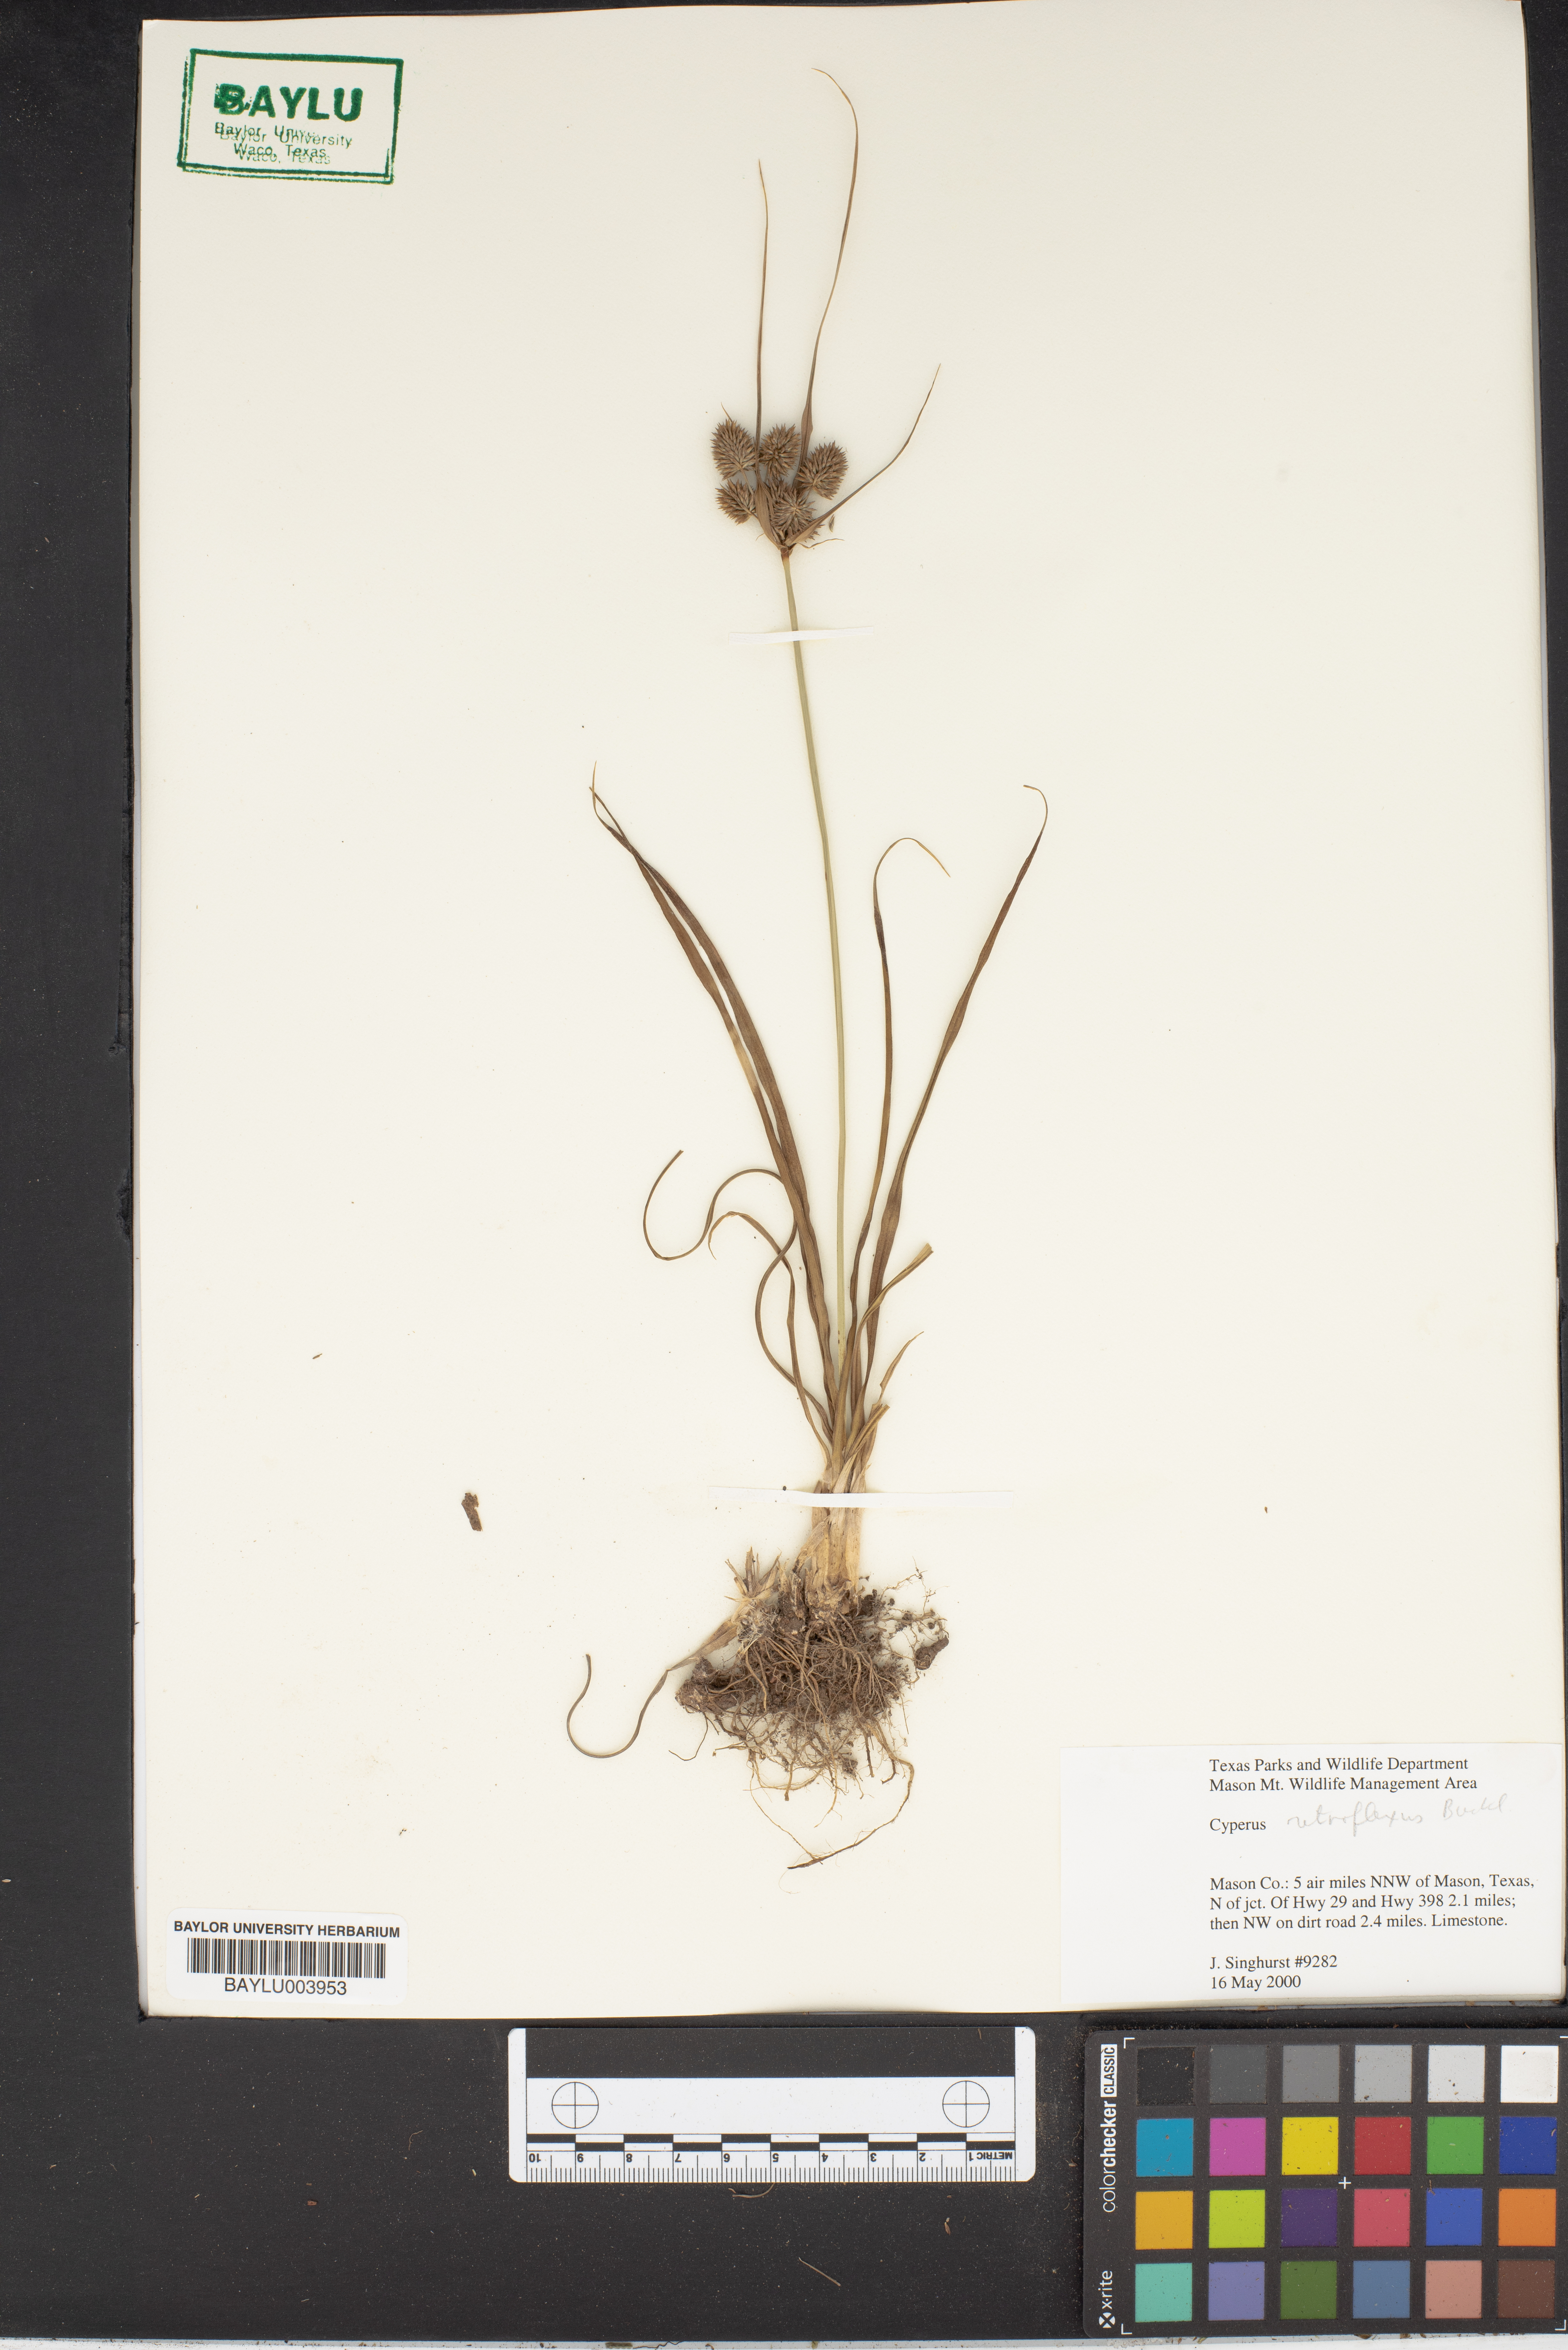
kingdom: Plantae
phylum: Tracheophyta
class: Liliopsida
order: Poales
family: Cyperaceae
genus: Cyperus
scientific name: Cyperus retroflexus
